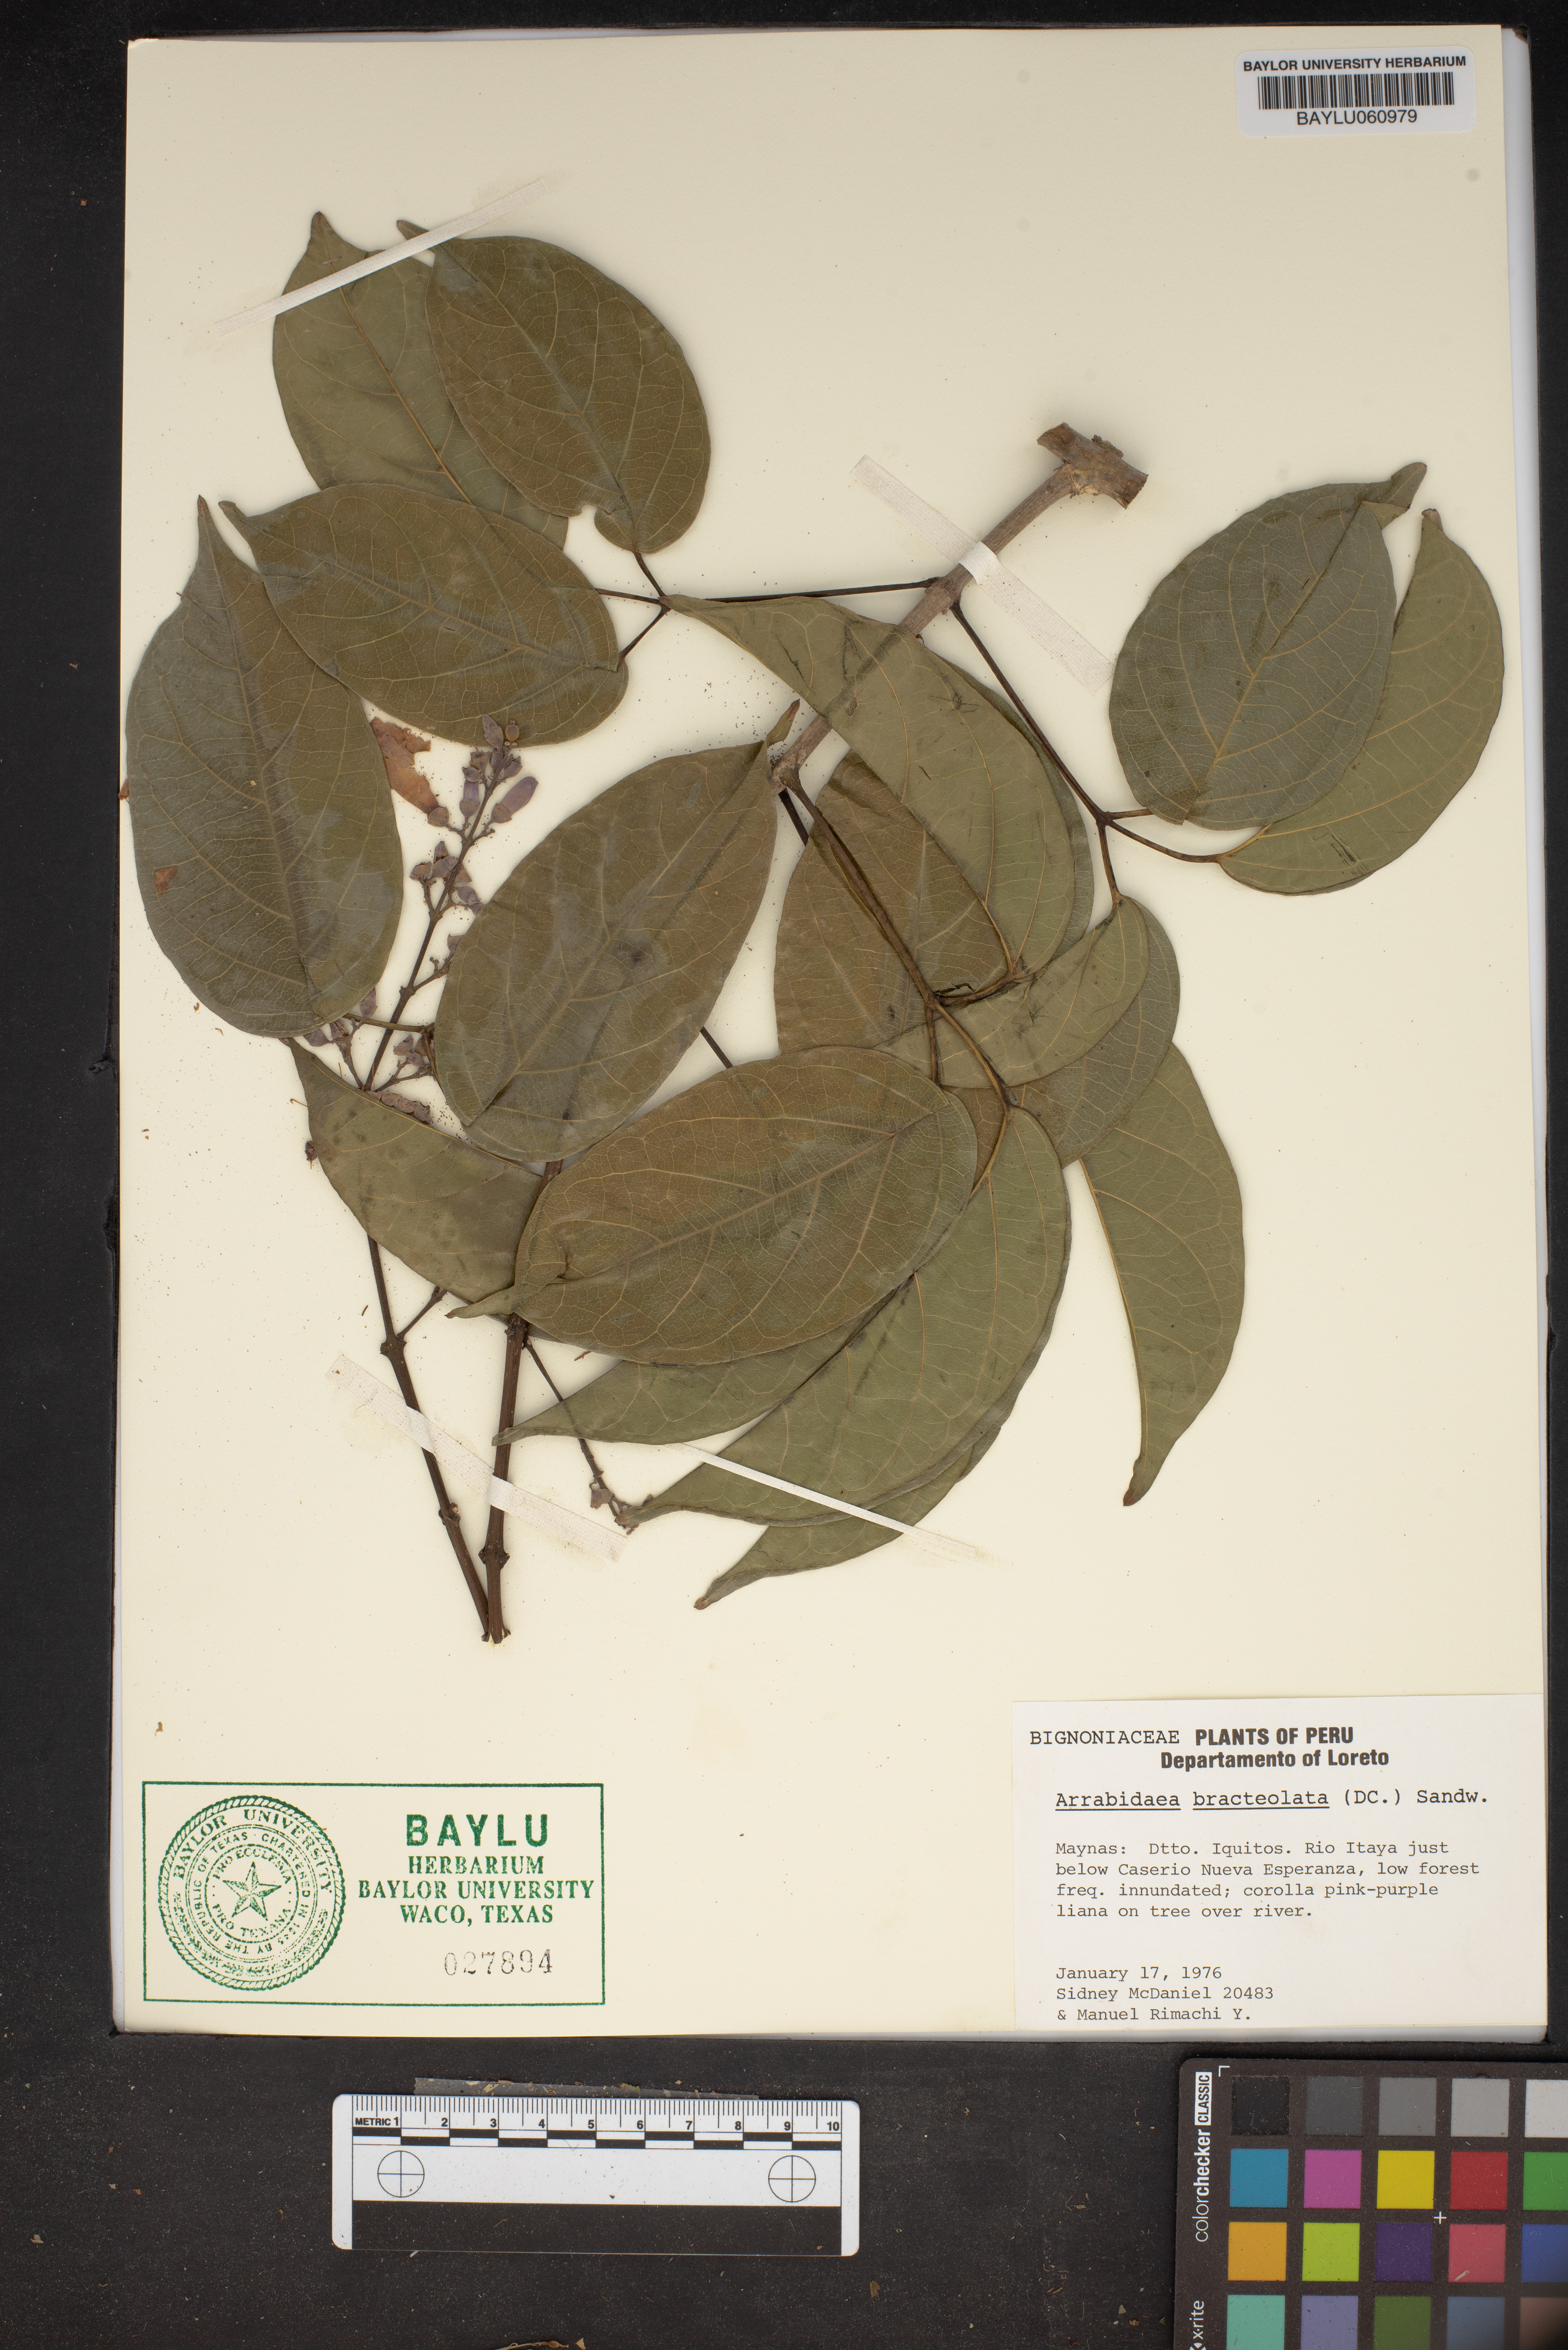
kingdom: Plantae
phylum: Tracheophyta
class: Magnoliopsida
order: Lamiales
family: Bignoniaceae
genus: Cuspidaria
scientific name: Cuspidaria bracteolata
